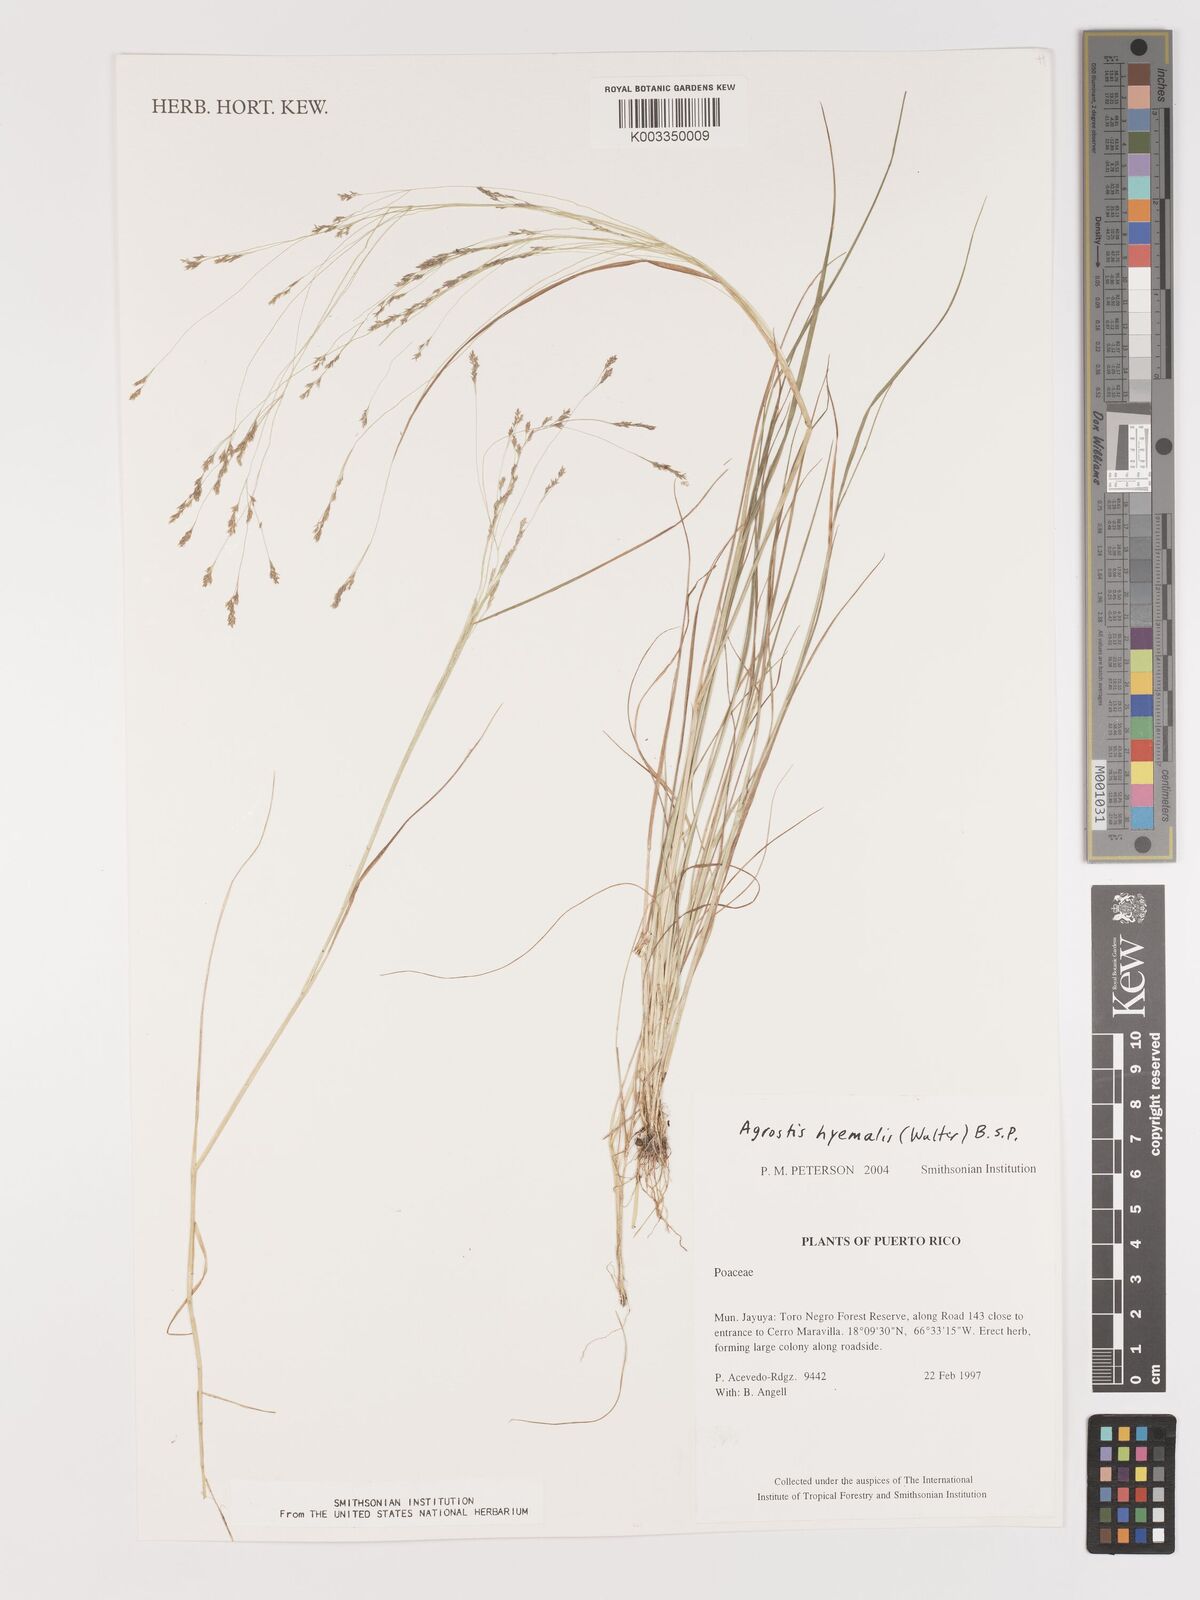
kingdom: Plantae
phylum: Tracheophyta
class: Liliopsida
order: Poales
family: Poaceae
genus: Agrostis
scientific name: Agrostis hyemalis
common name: Small bent
